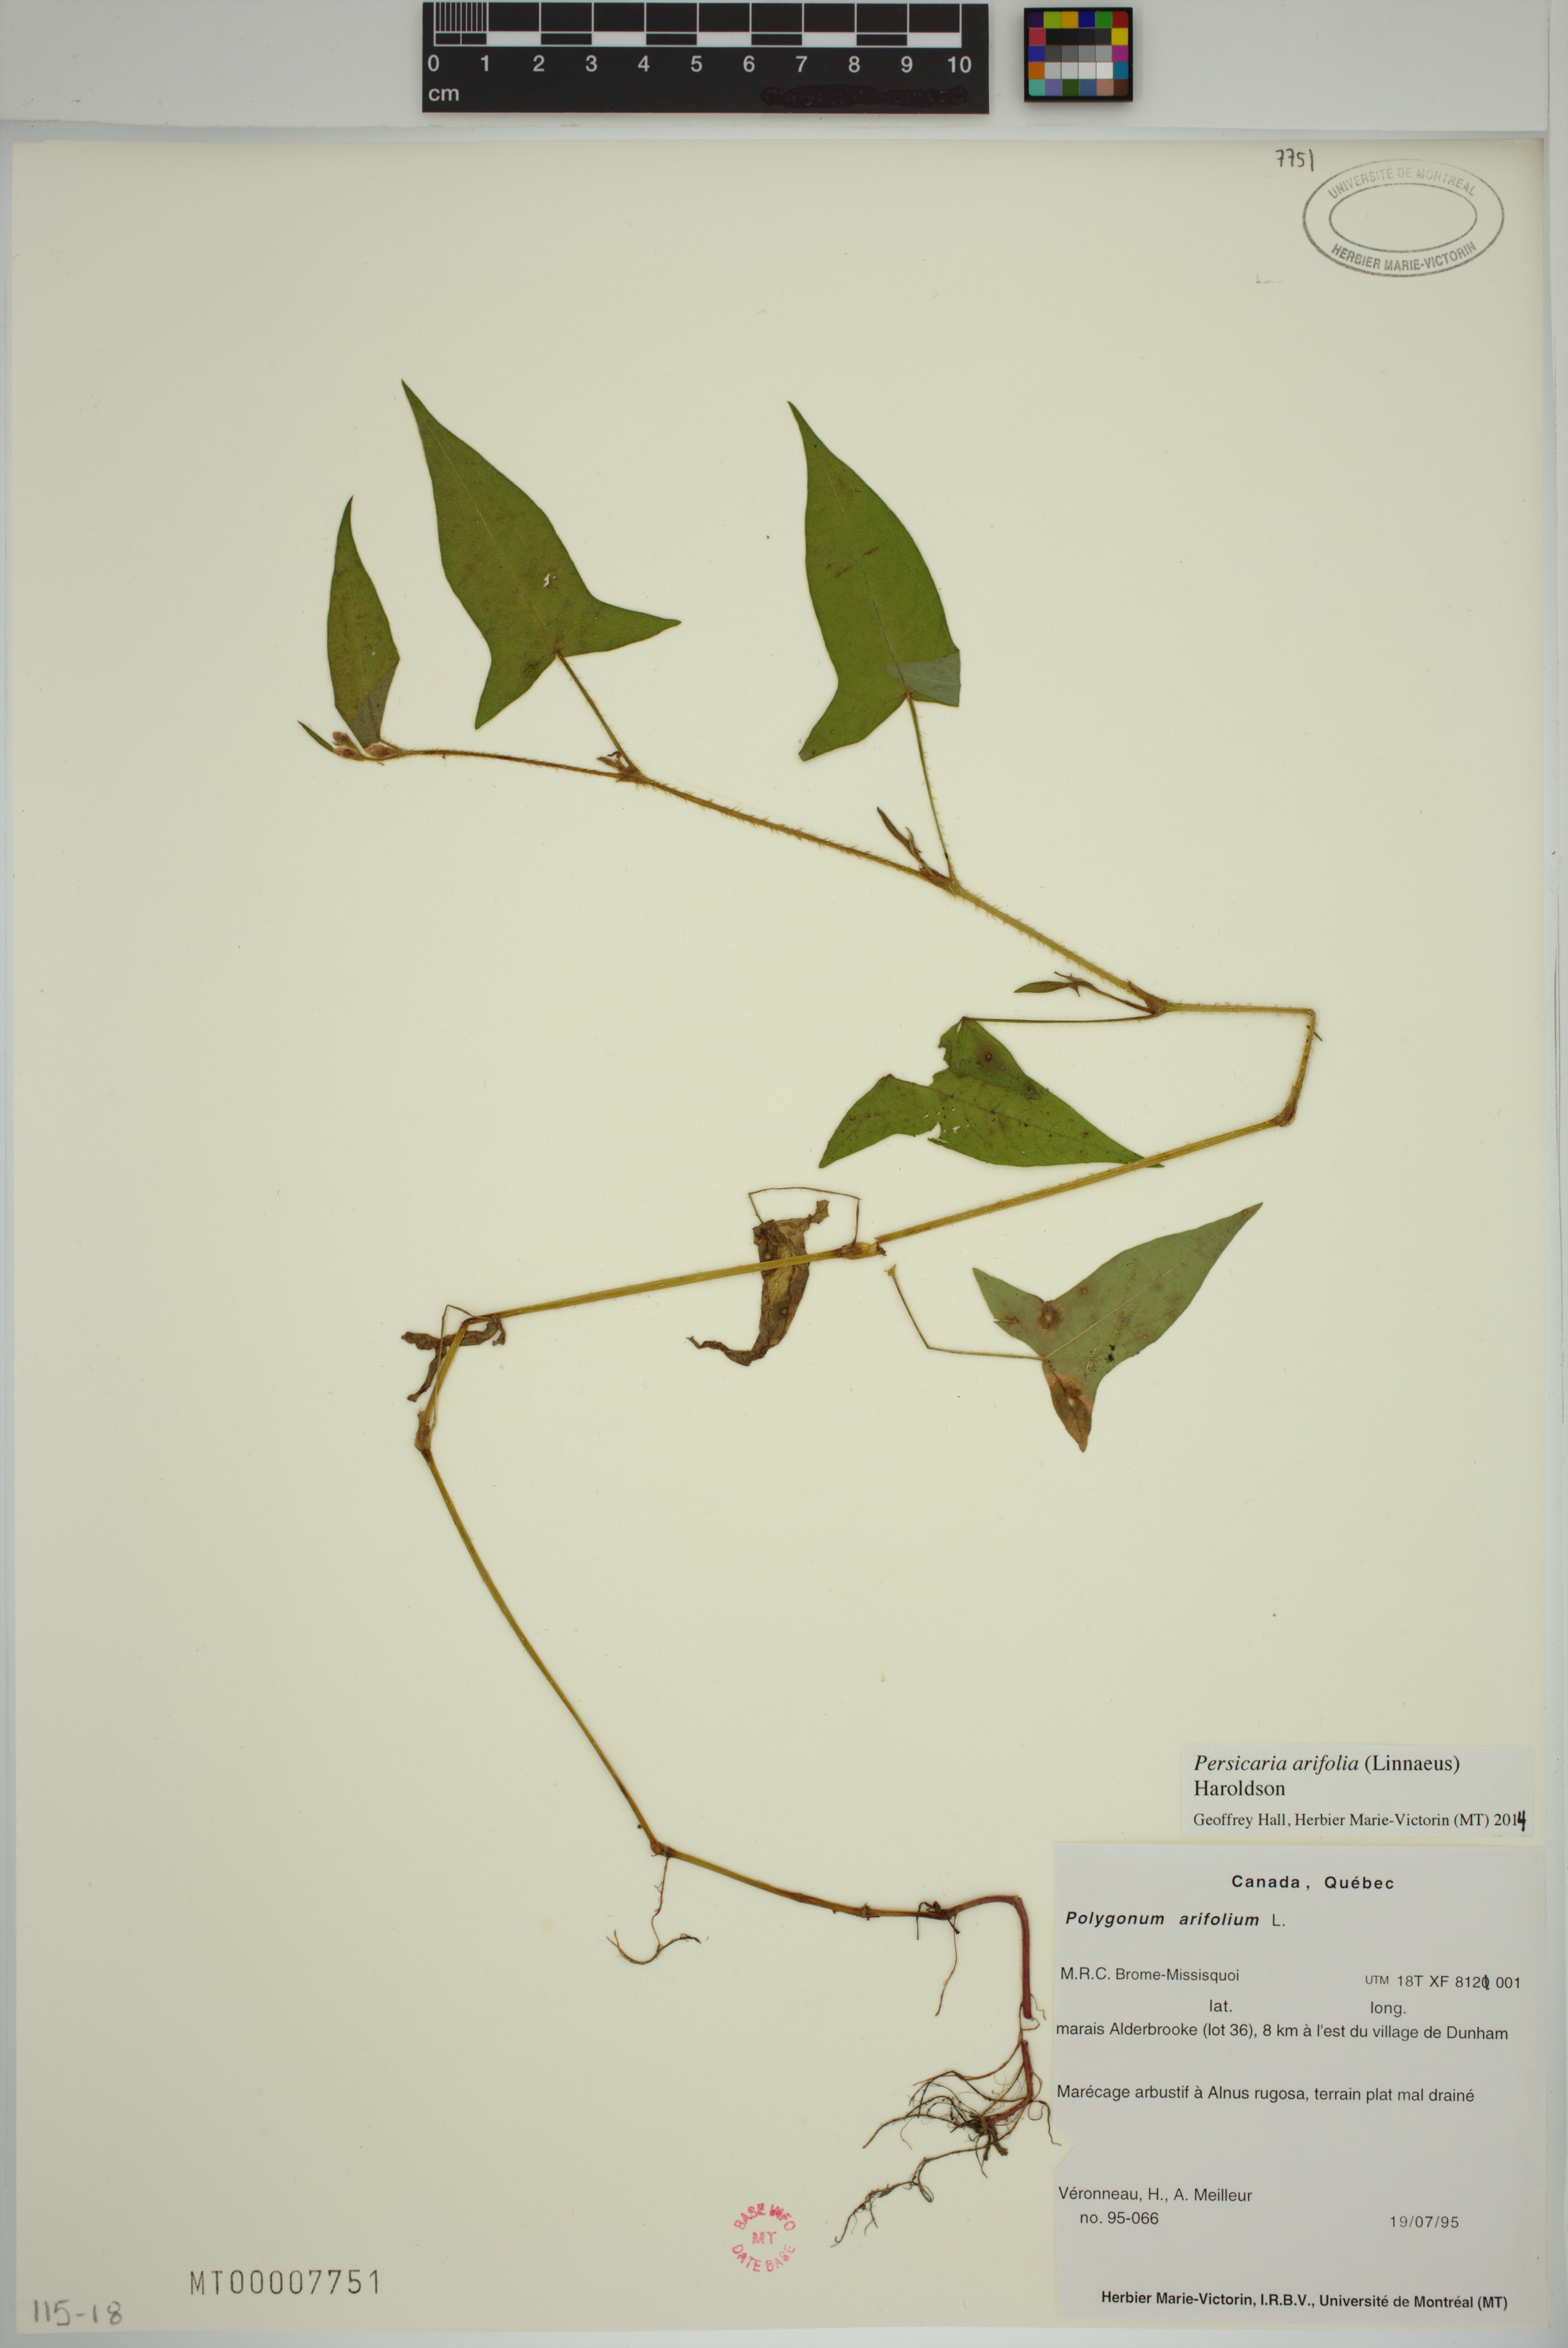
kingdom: Plantae
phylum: Tracheophyta
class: Magnoliopsida
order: Caryophyllales
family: Polygonaceae
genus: Persicaria
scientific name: Persicaria arifolia
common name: Halberd-leaved tear-thumb
